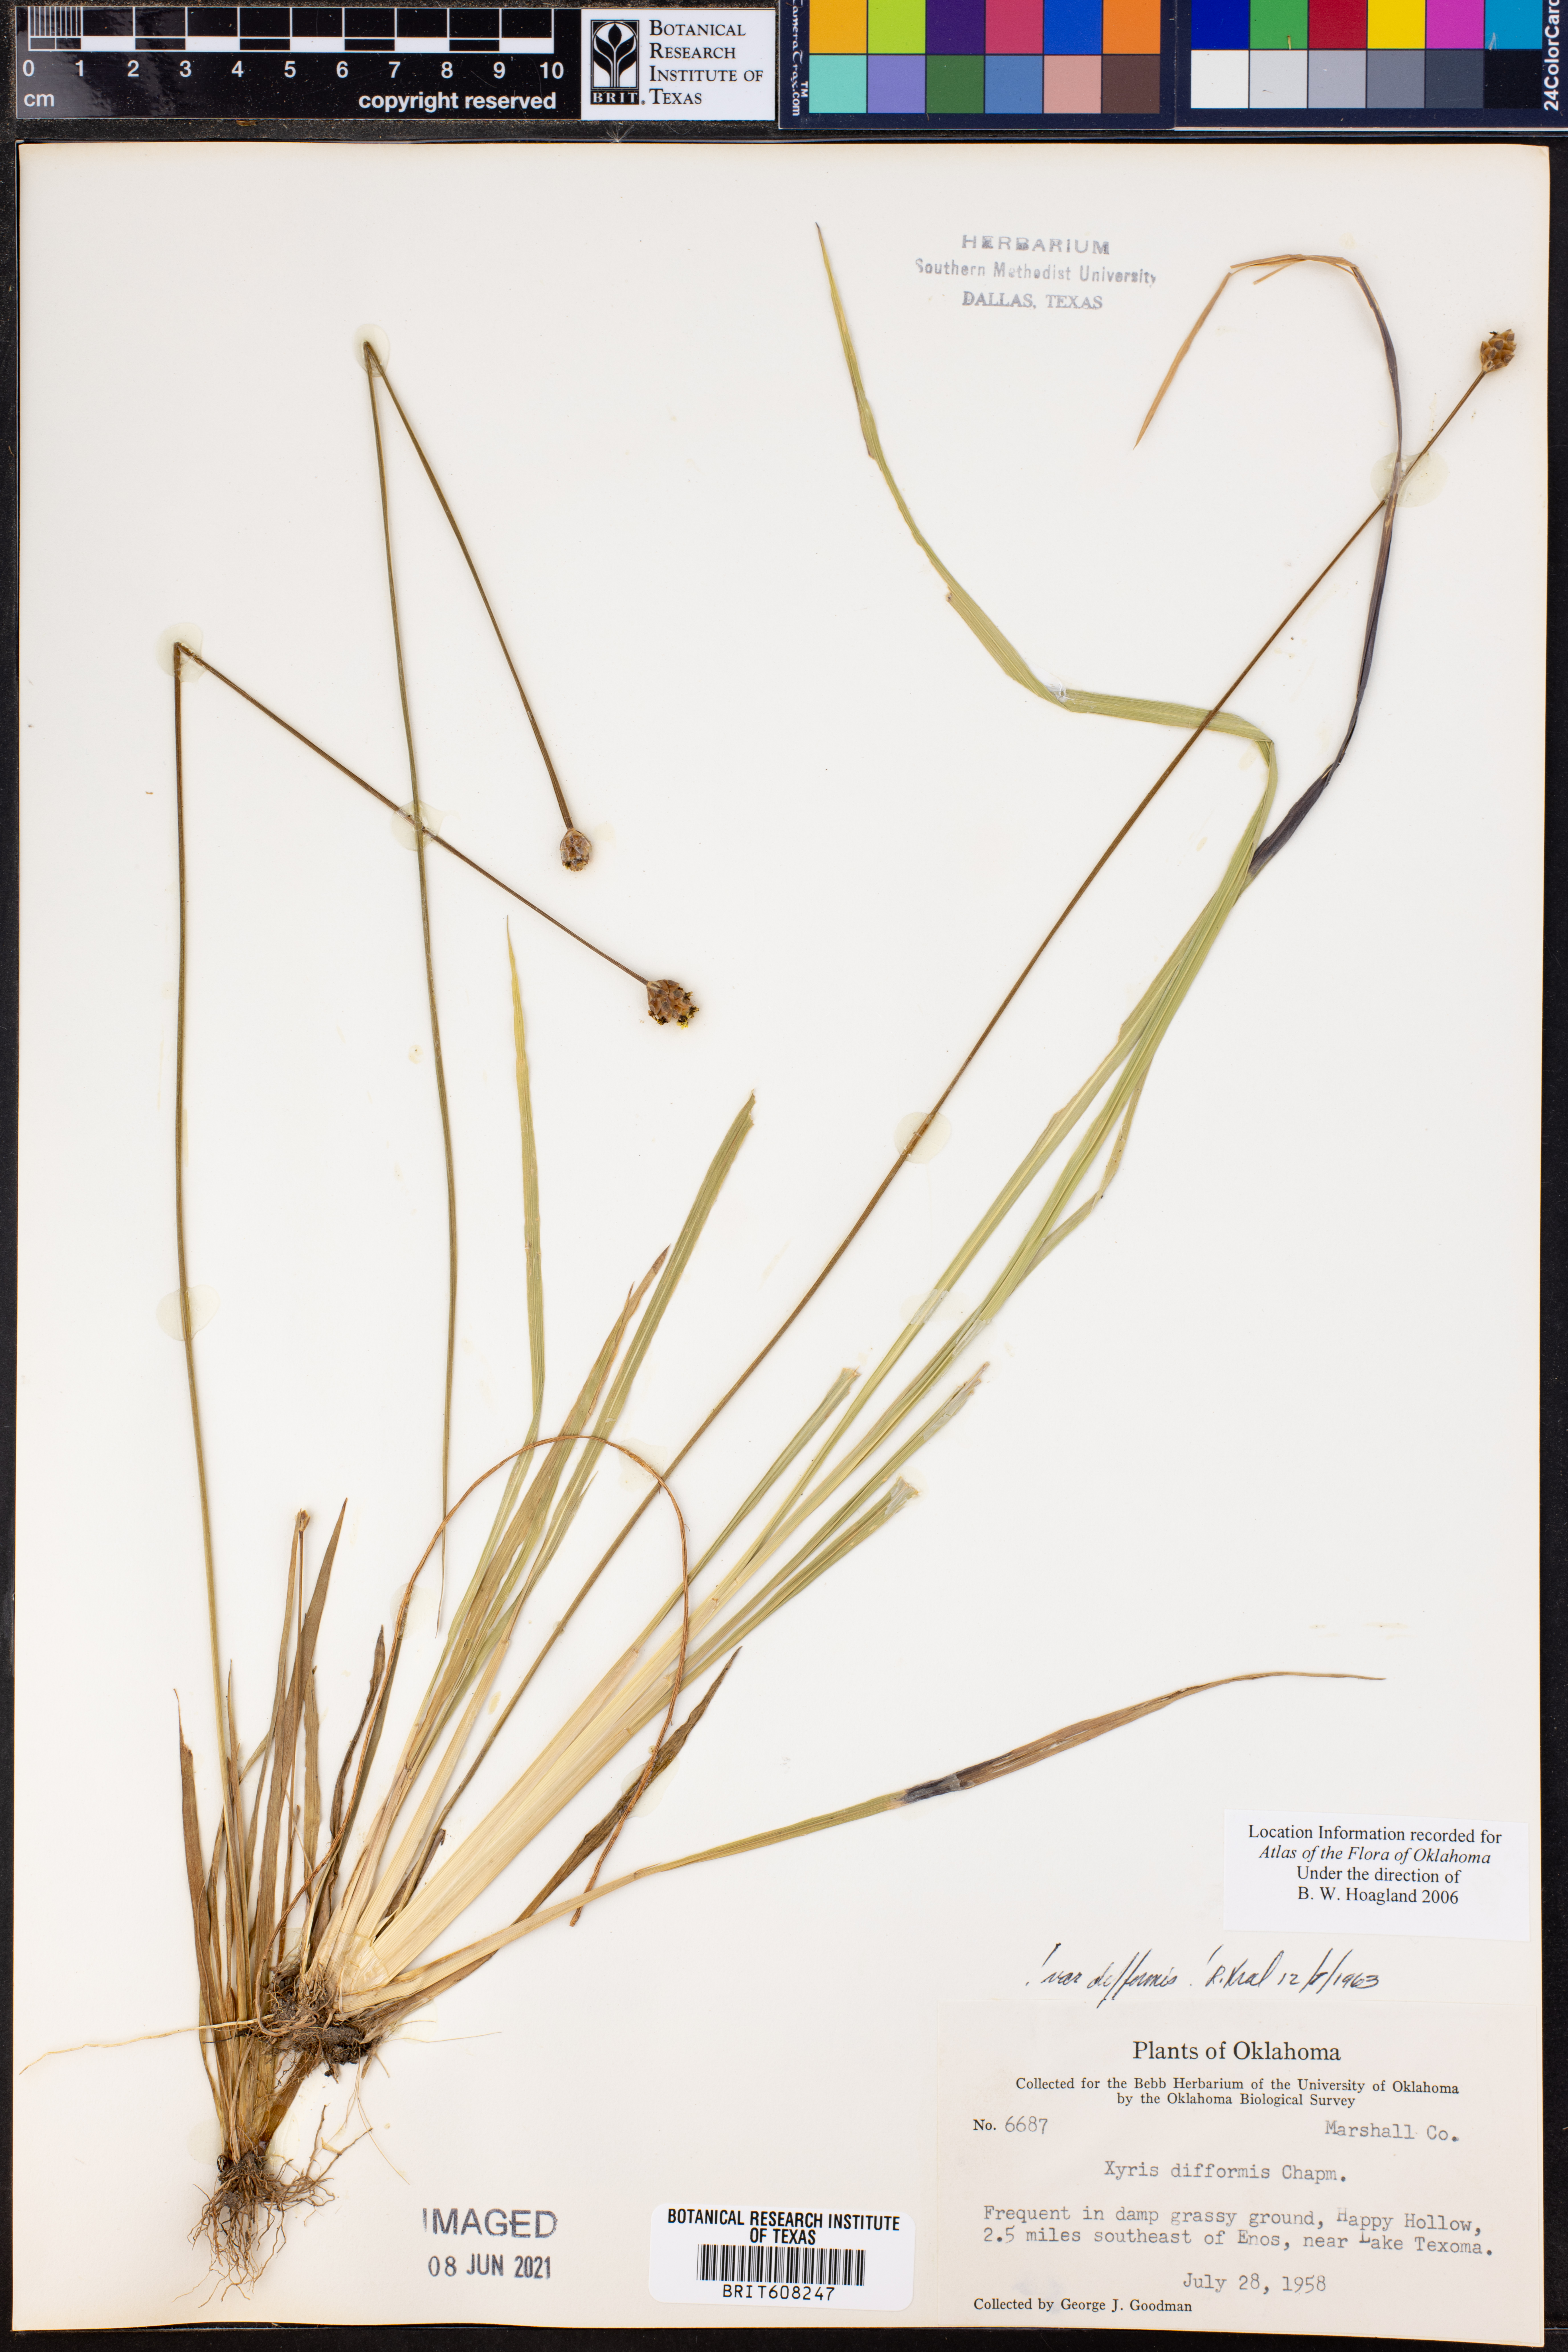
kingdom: Plantae
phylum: Tracheophyta
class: Liliopsida
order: Poales
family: Xyridaceae
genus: Xyris
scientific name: Xyris difformis
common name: Bog yellow-eyed-grass
